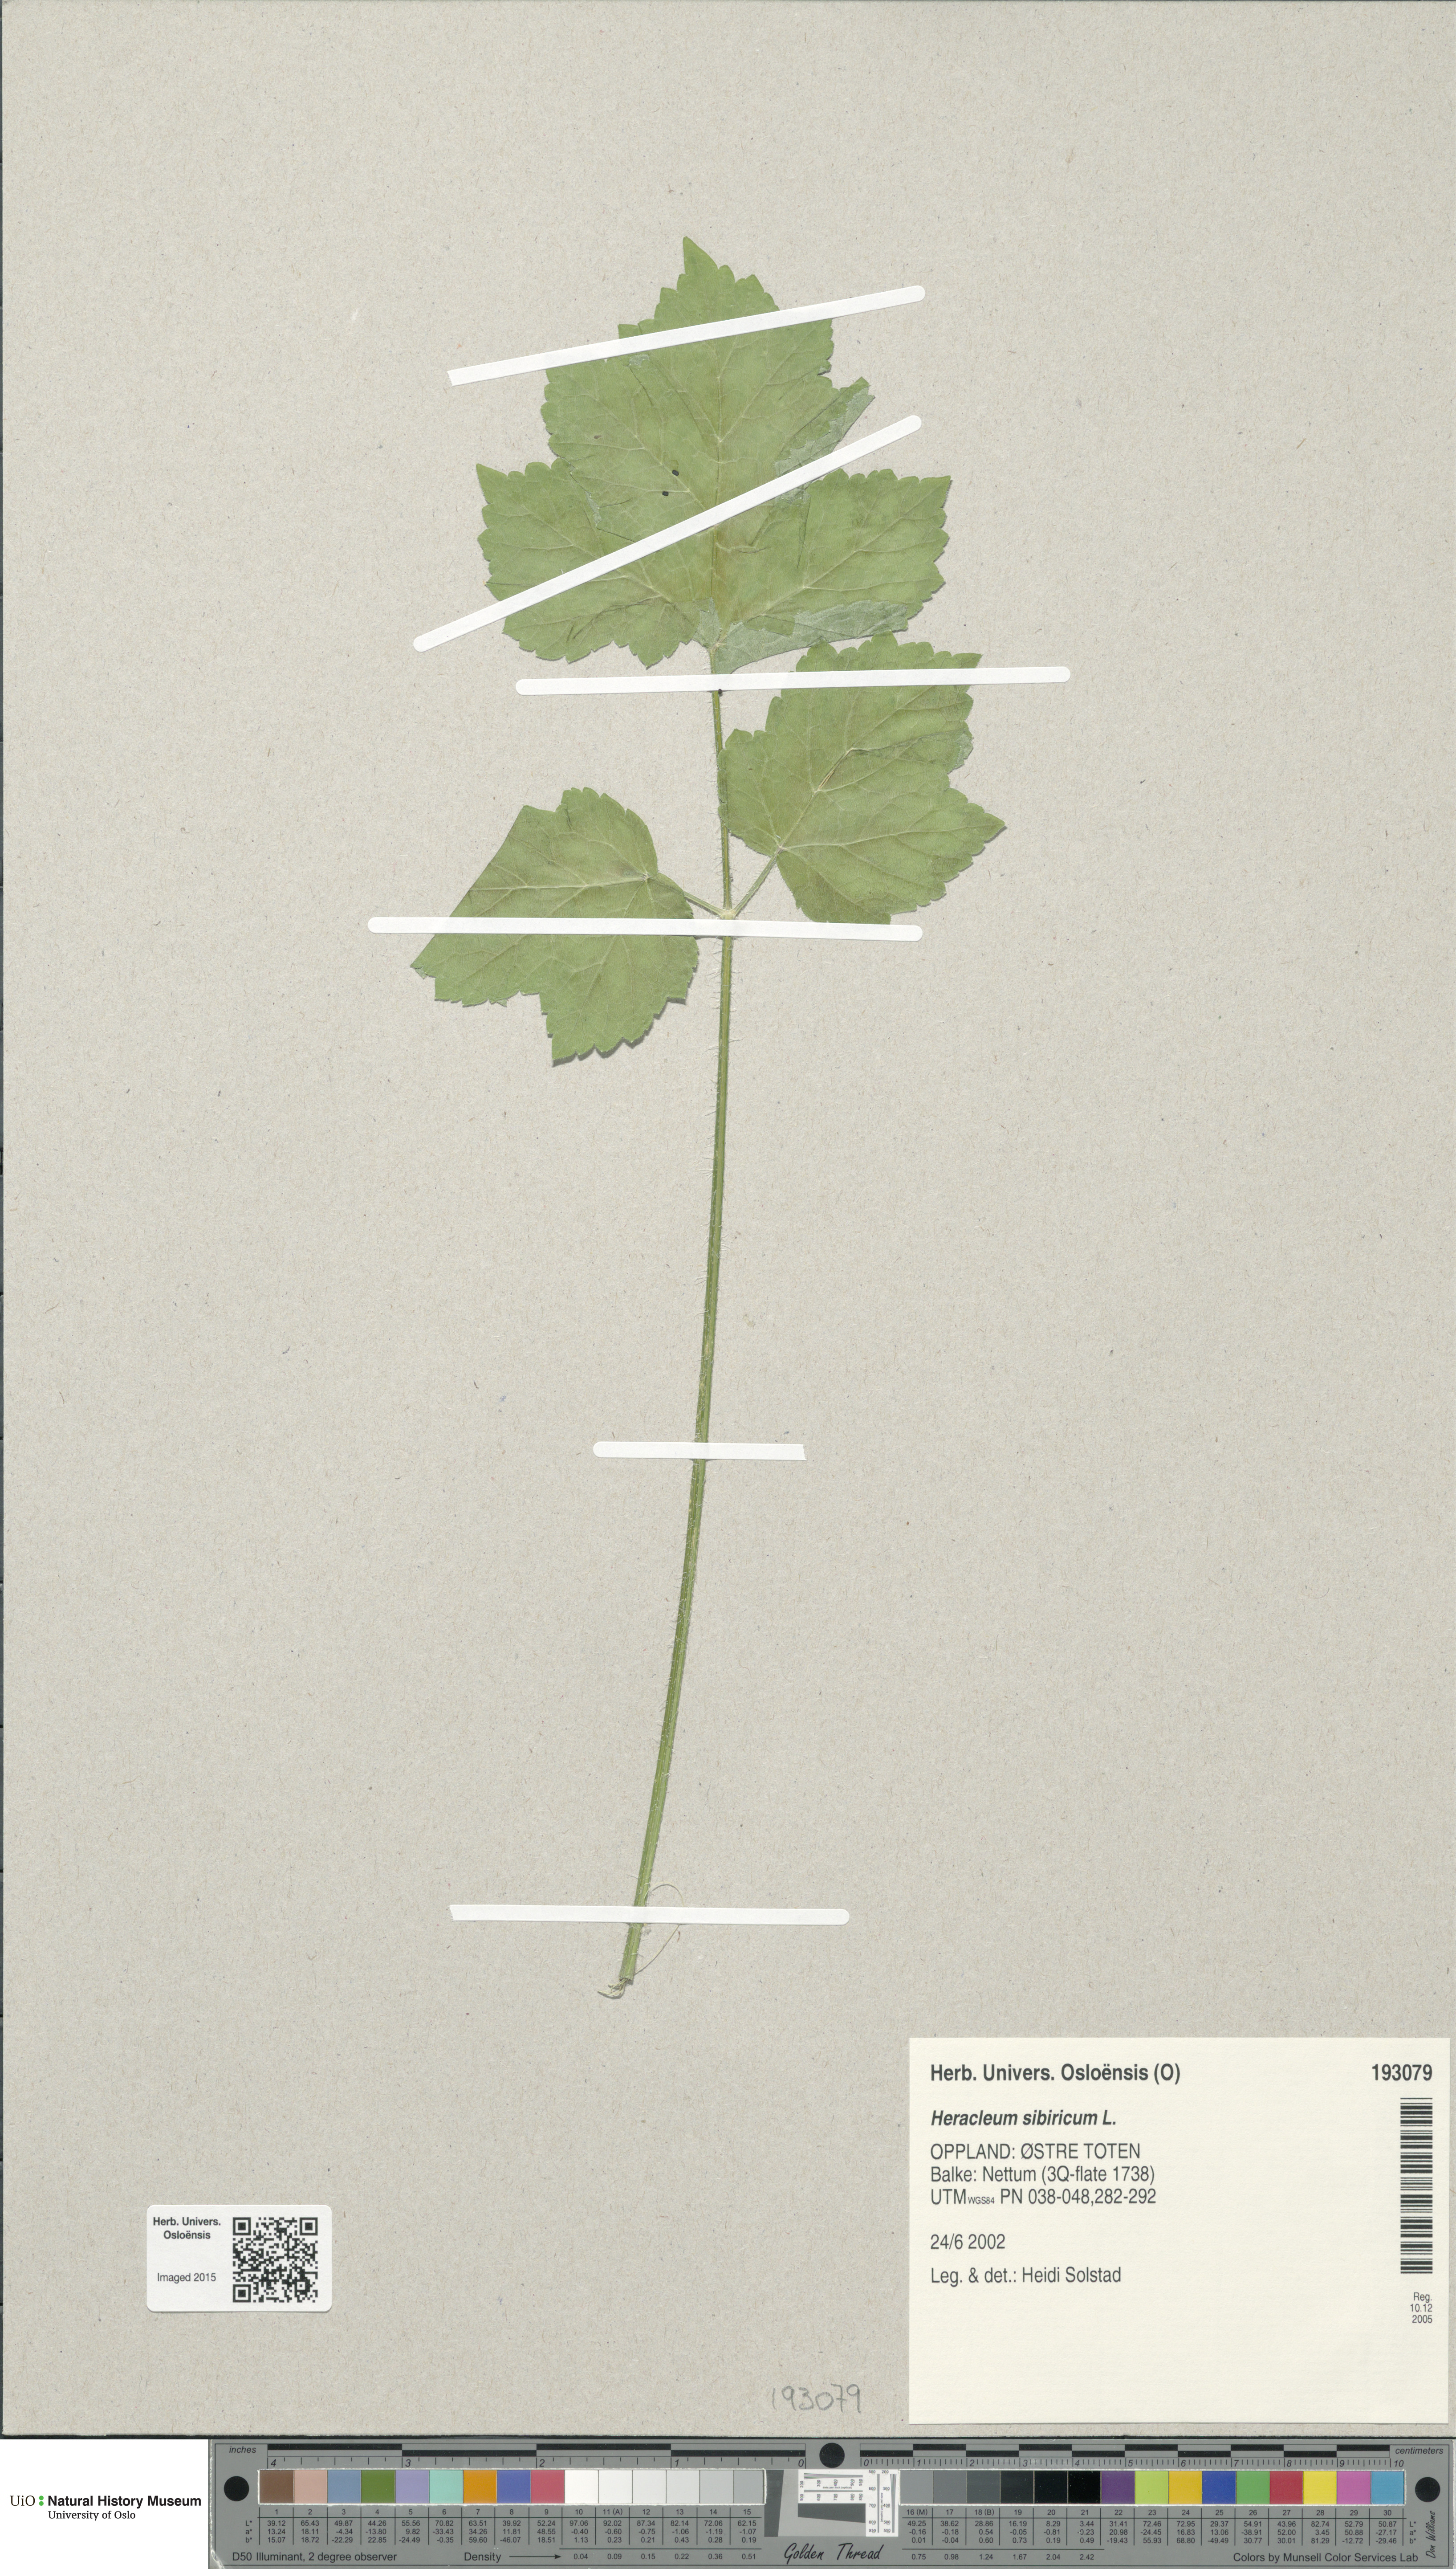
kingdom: Plantae
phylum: Tracheophyta
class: Magnoliopsida
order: Apiales
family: Apiaceae
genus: Heracleum
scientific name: Heracleum sphondylium
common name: Hogweed
